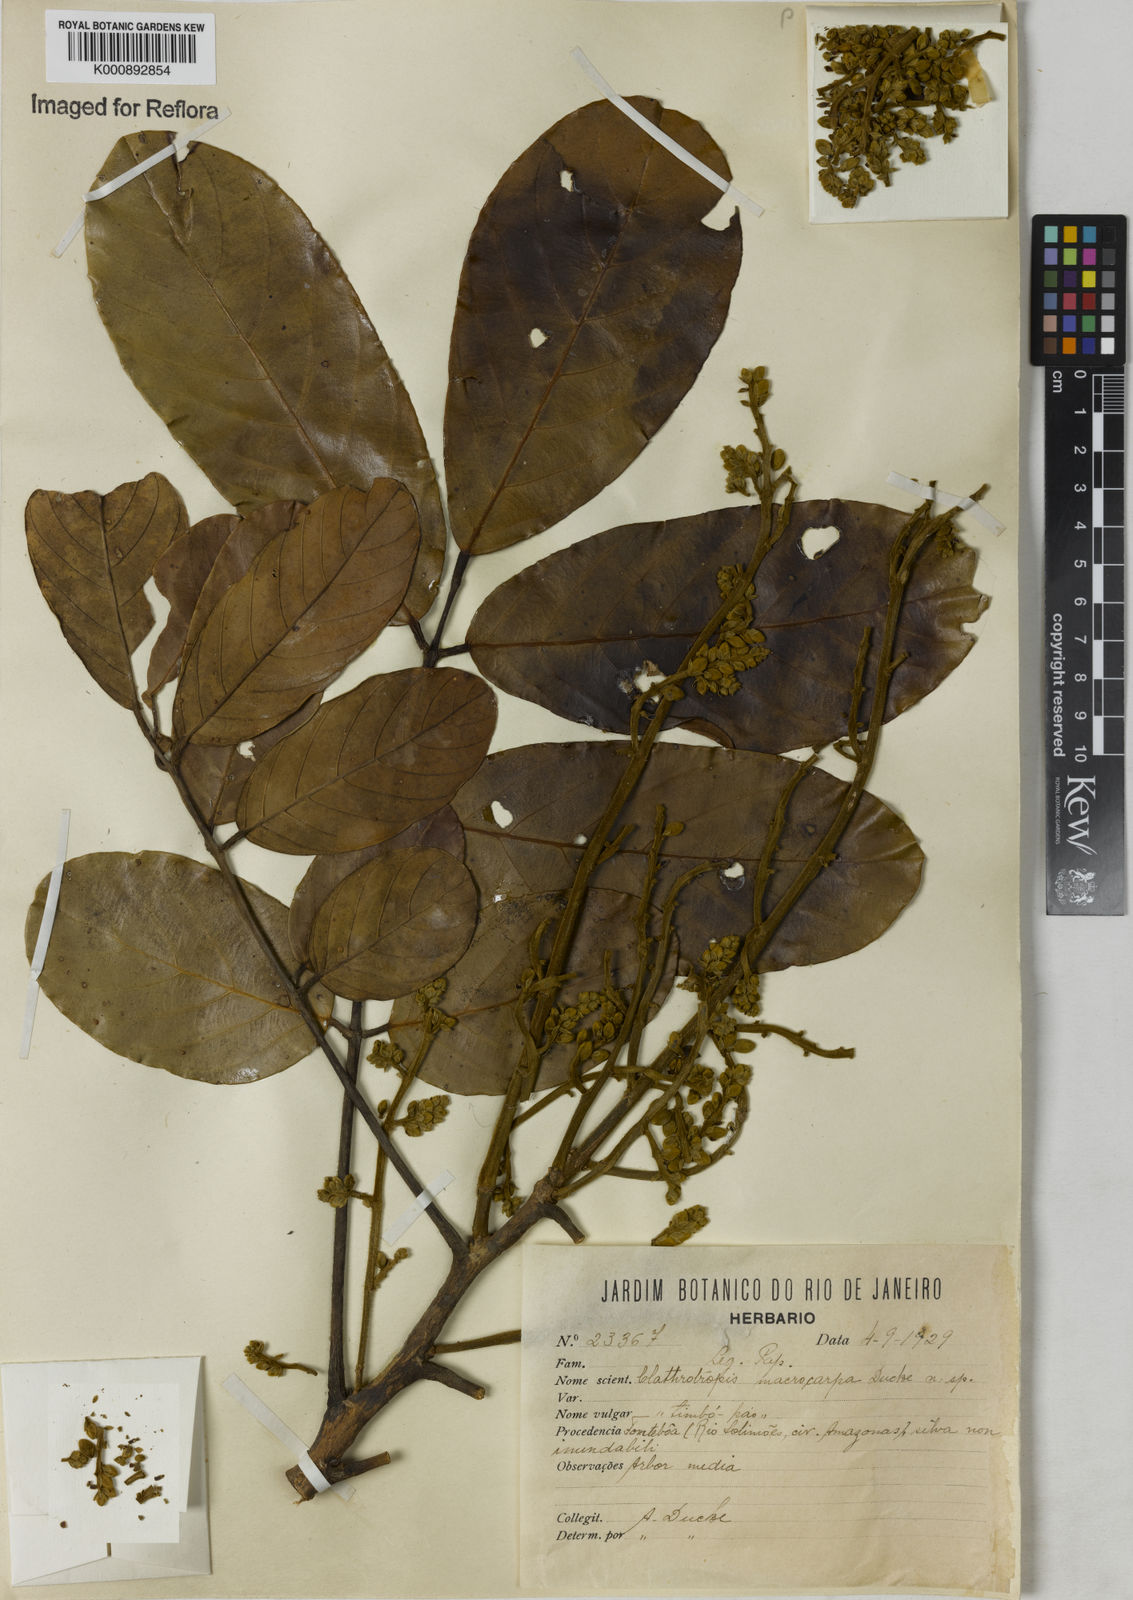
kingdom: Plantae
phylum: Tracheophyta
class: Magnoliopsida
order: Fabales
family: Fabaceae
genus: Clathrotropis
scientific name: Clathrotropis macrocarpa
